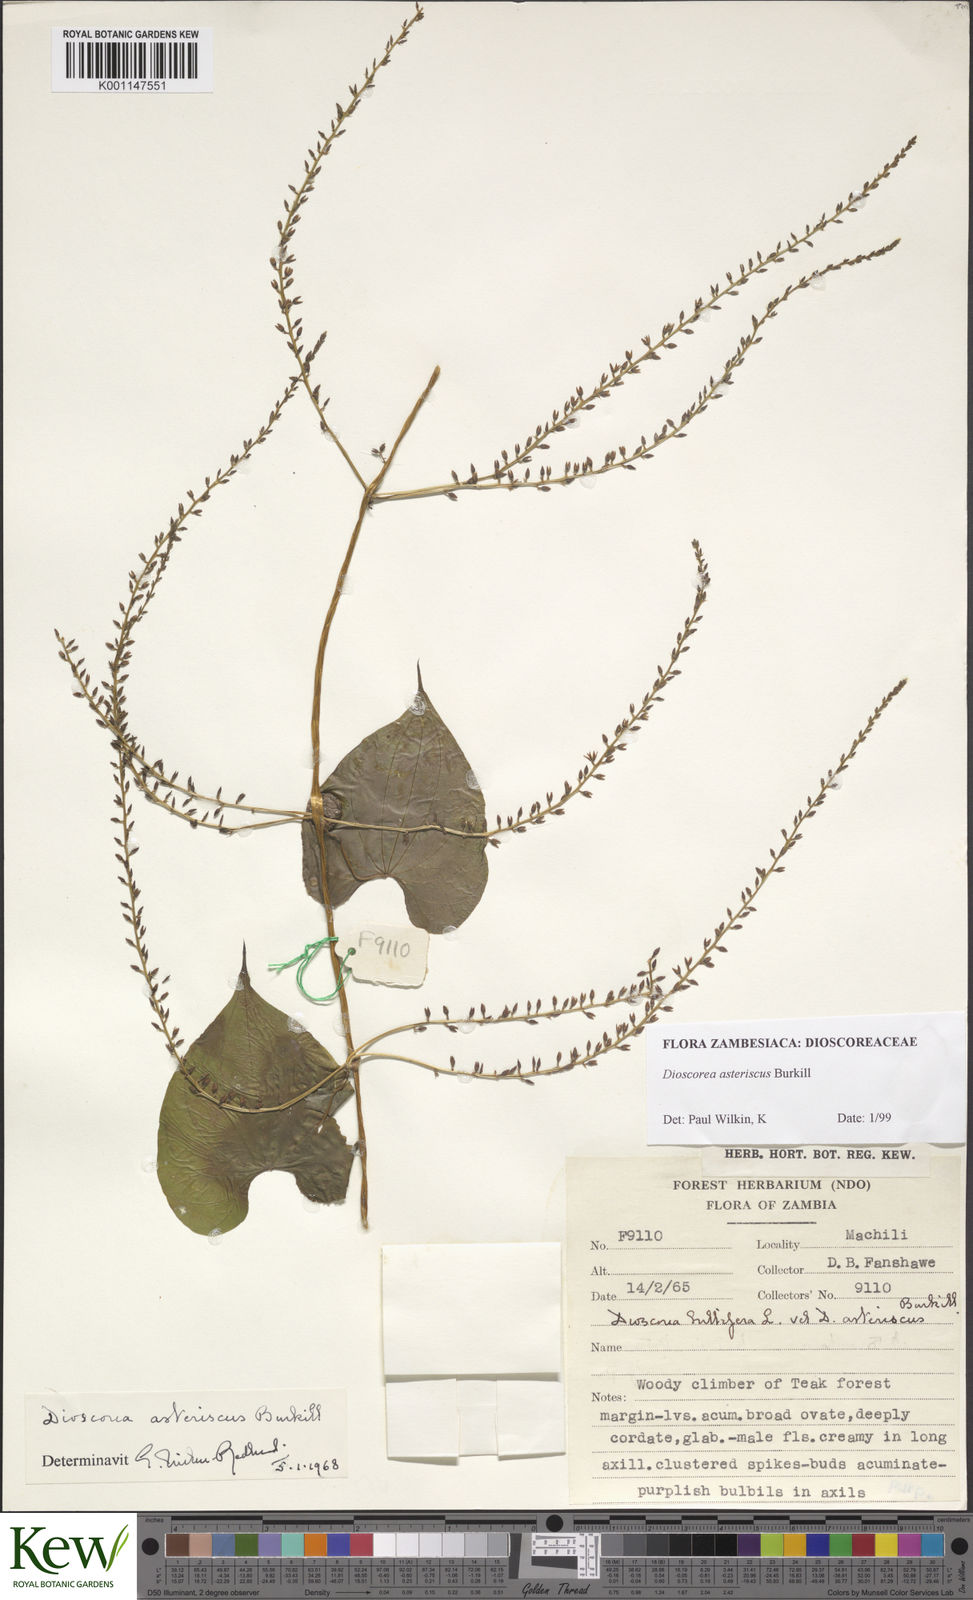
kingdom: Plantae
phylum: Tracheophyta
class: Liliopsida
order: Dioscoreales
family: Dioscoreaceae
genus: Dioscorea
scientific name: Dioscorea asteriscus
